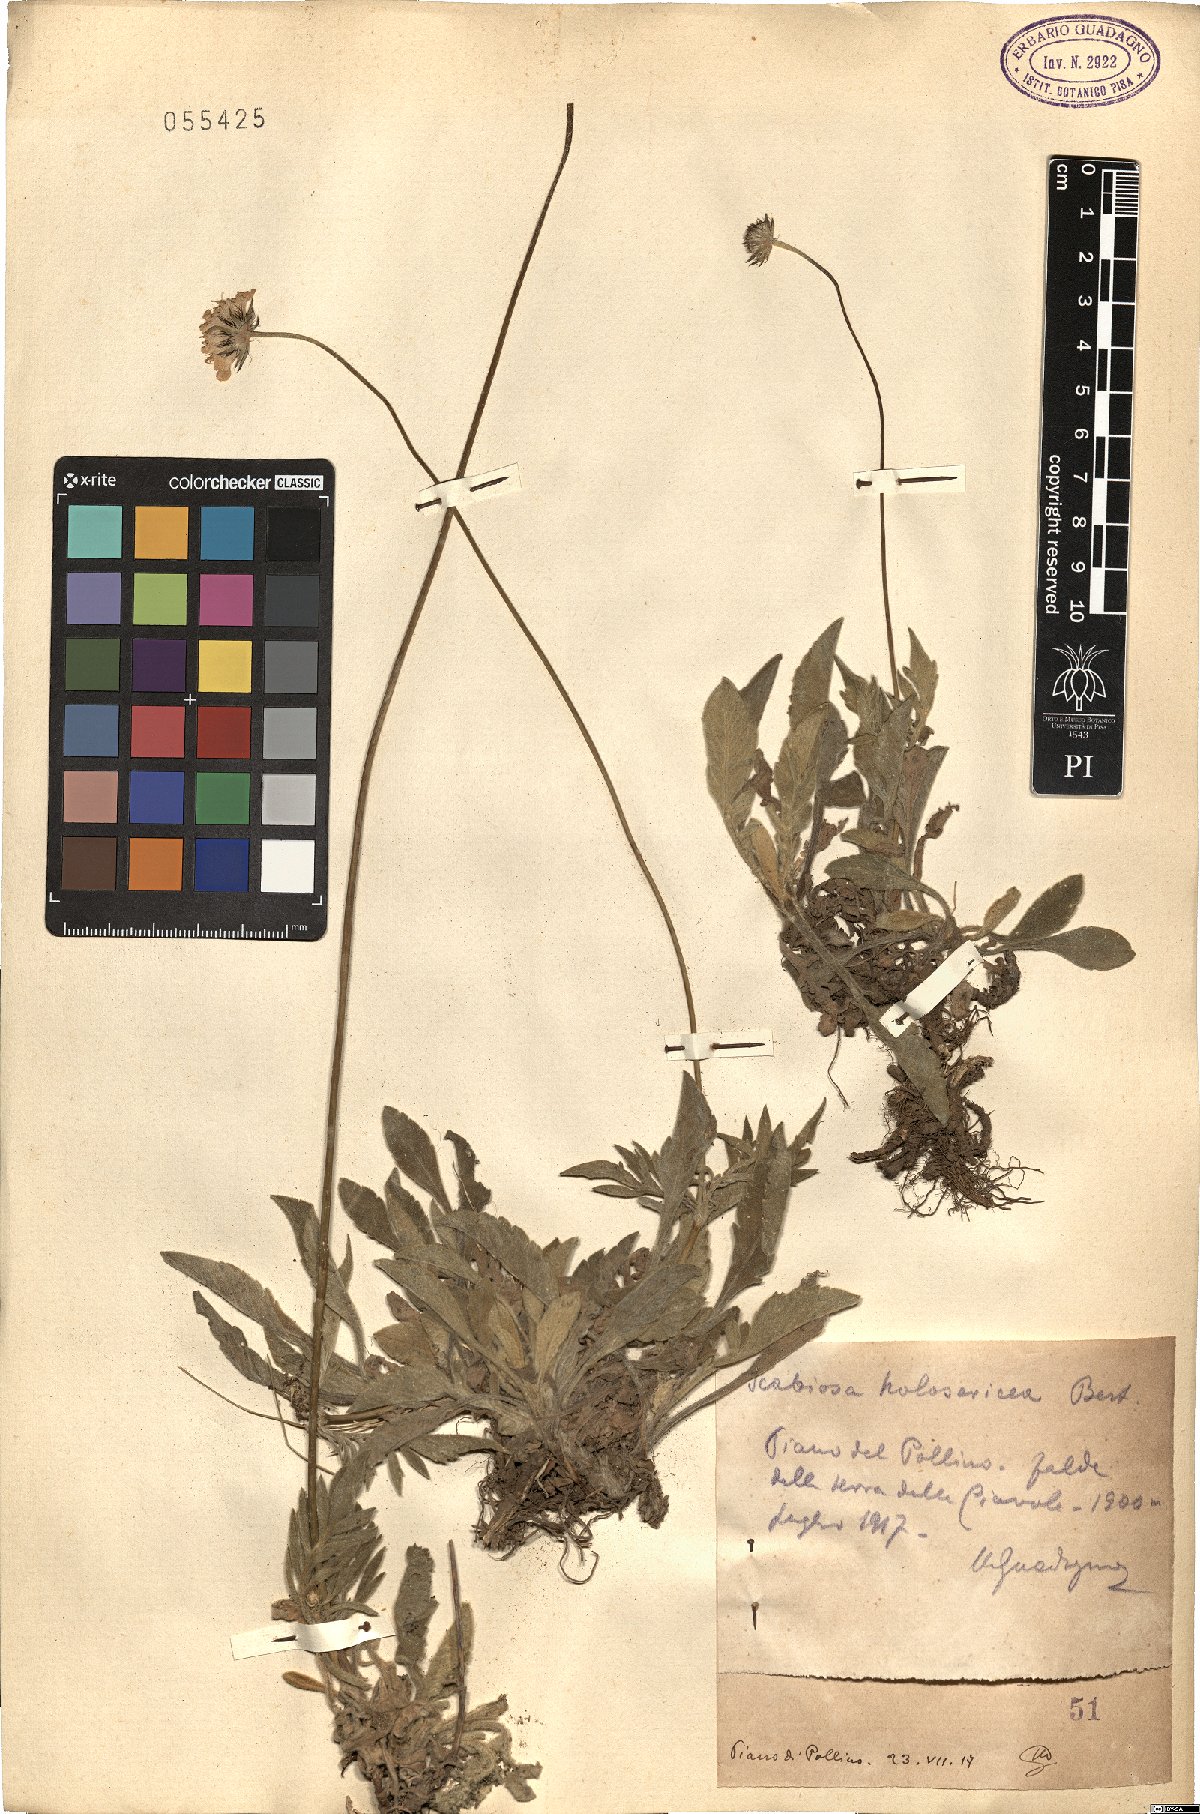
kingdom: Plantae
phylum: Tracheophyta
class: Magnoliopsida
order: Dipsacales
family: Caprifoliaceae
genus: Scabiosa
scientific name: Scabiosa holosericea
